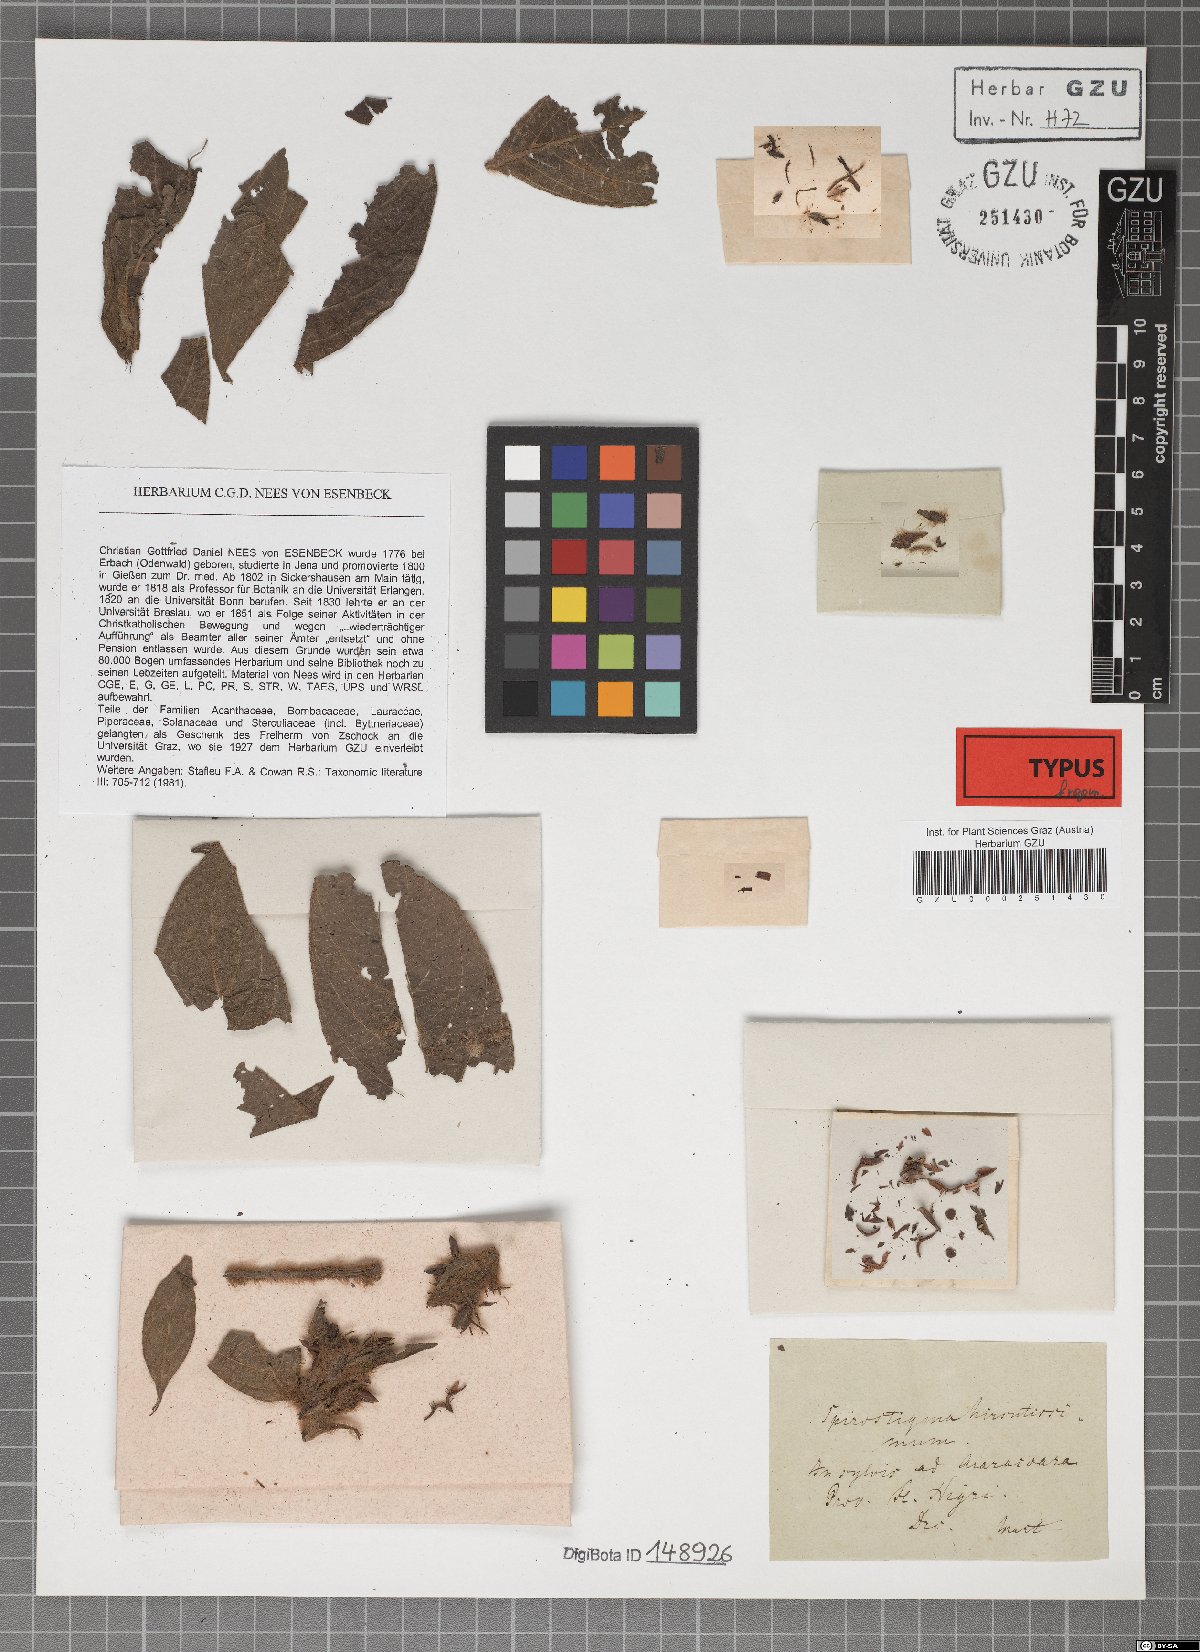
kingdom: Plantae
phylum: Tracheophyta
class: Magnoliopsida
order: Lamiales
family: Acanthaceae
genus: Ruellia
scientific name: Ruellia hirsutissima
